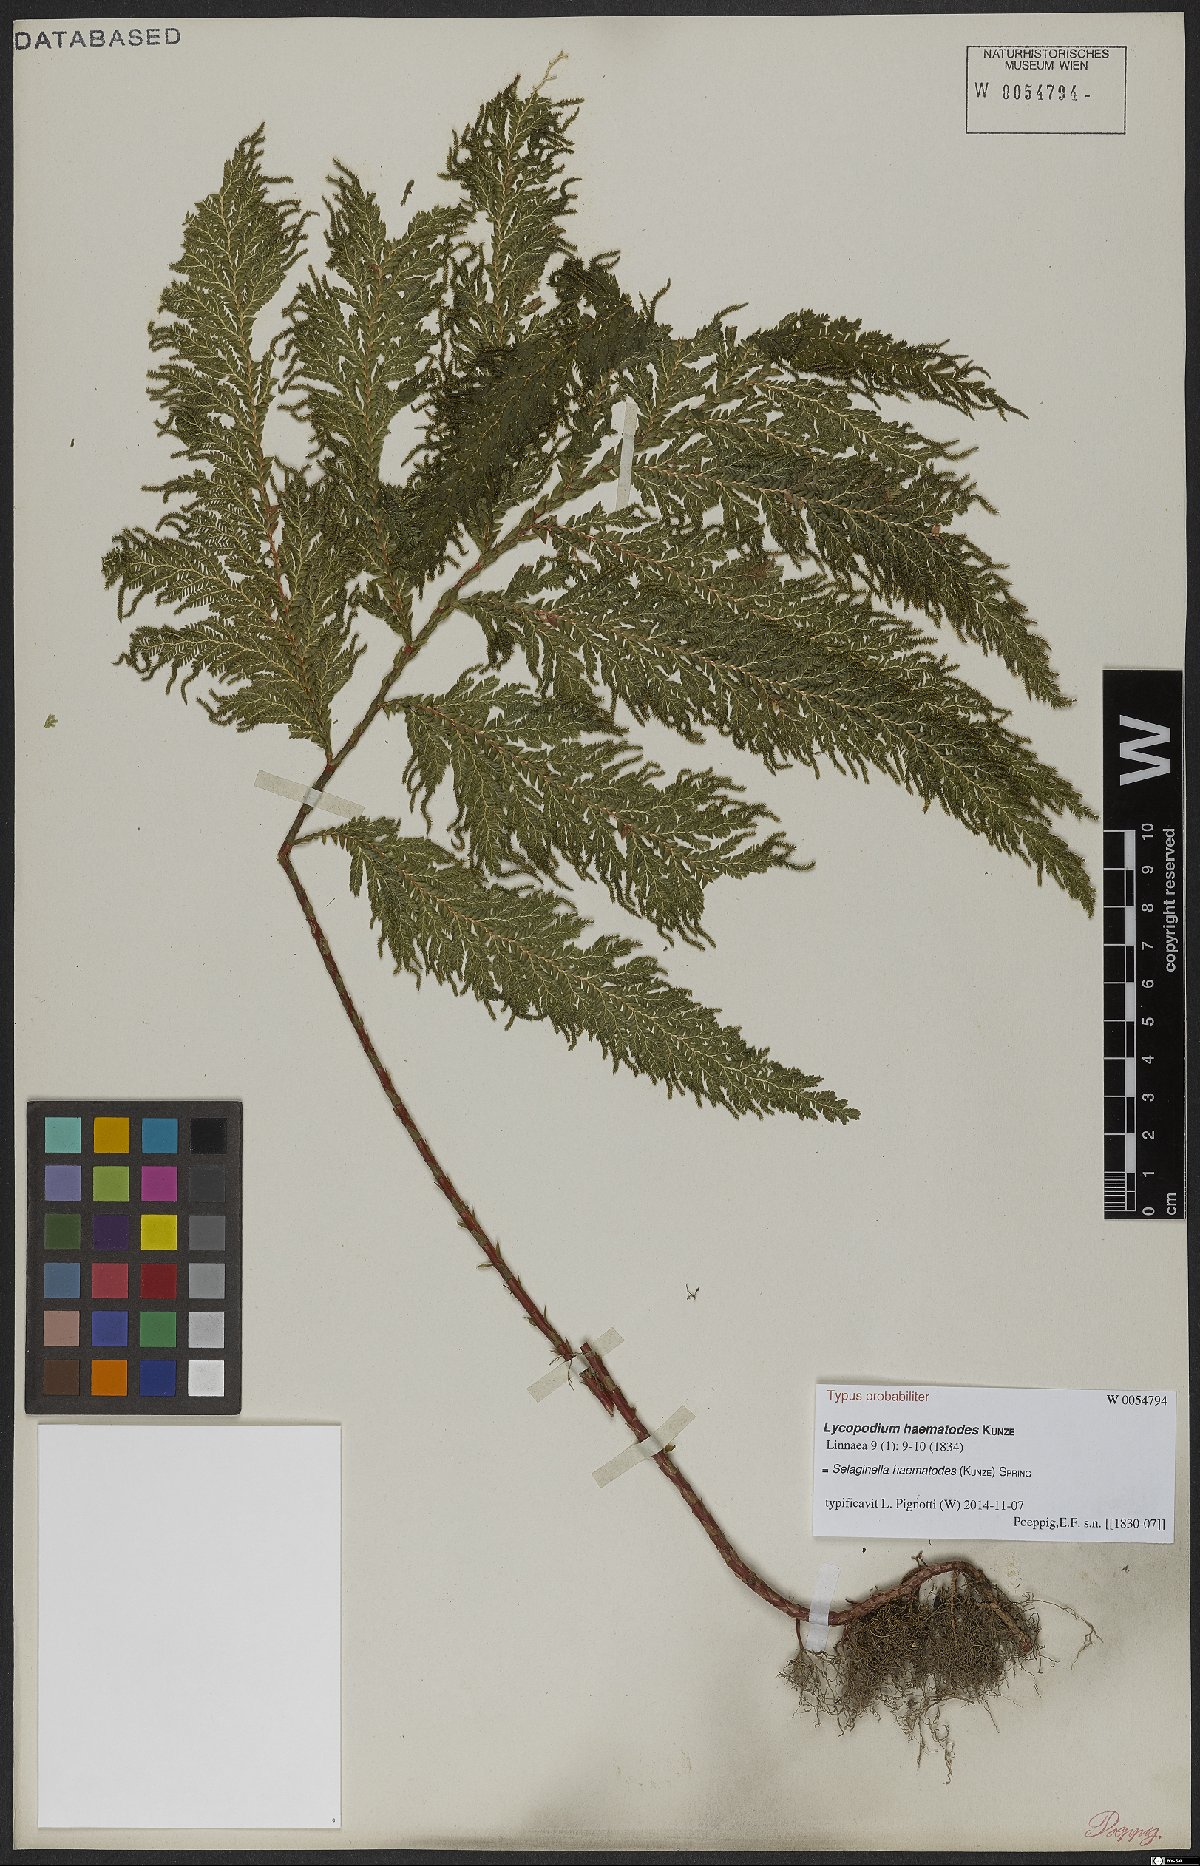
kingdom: Plantae
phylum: Tracheophyta
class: Lycopodiopsida
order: Selaginellales
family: Selaginellaceae
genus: Selaginella
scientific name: Selaginella haematodes
